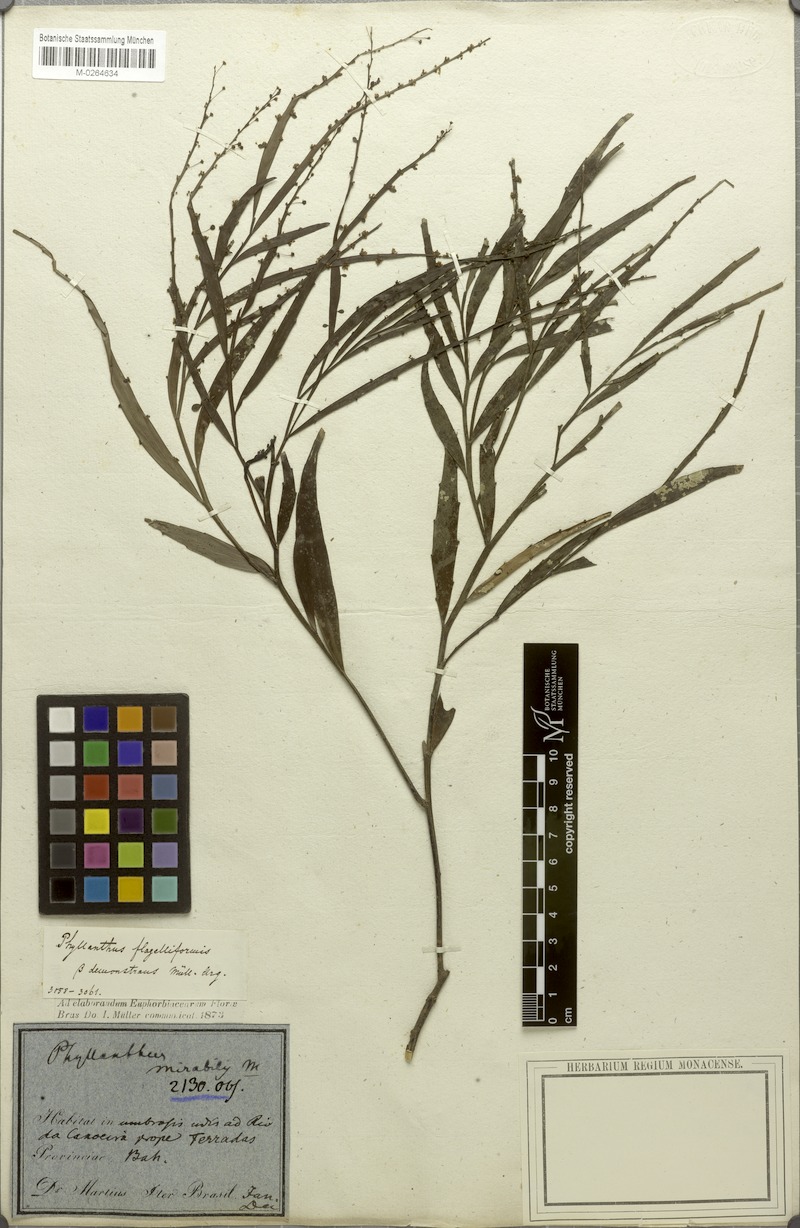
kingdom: Plantae
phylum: Tracheophyta
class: Magnoliopsida
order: Malpighiales
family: Phyllanthaceae
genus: Phyllanthus
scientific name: Phyllanthus eurisladro
